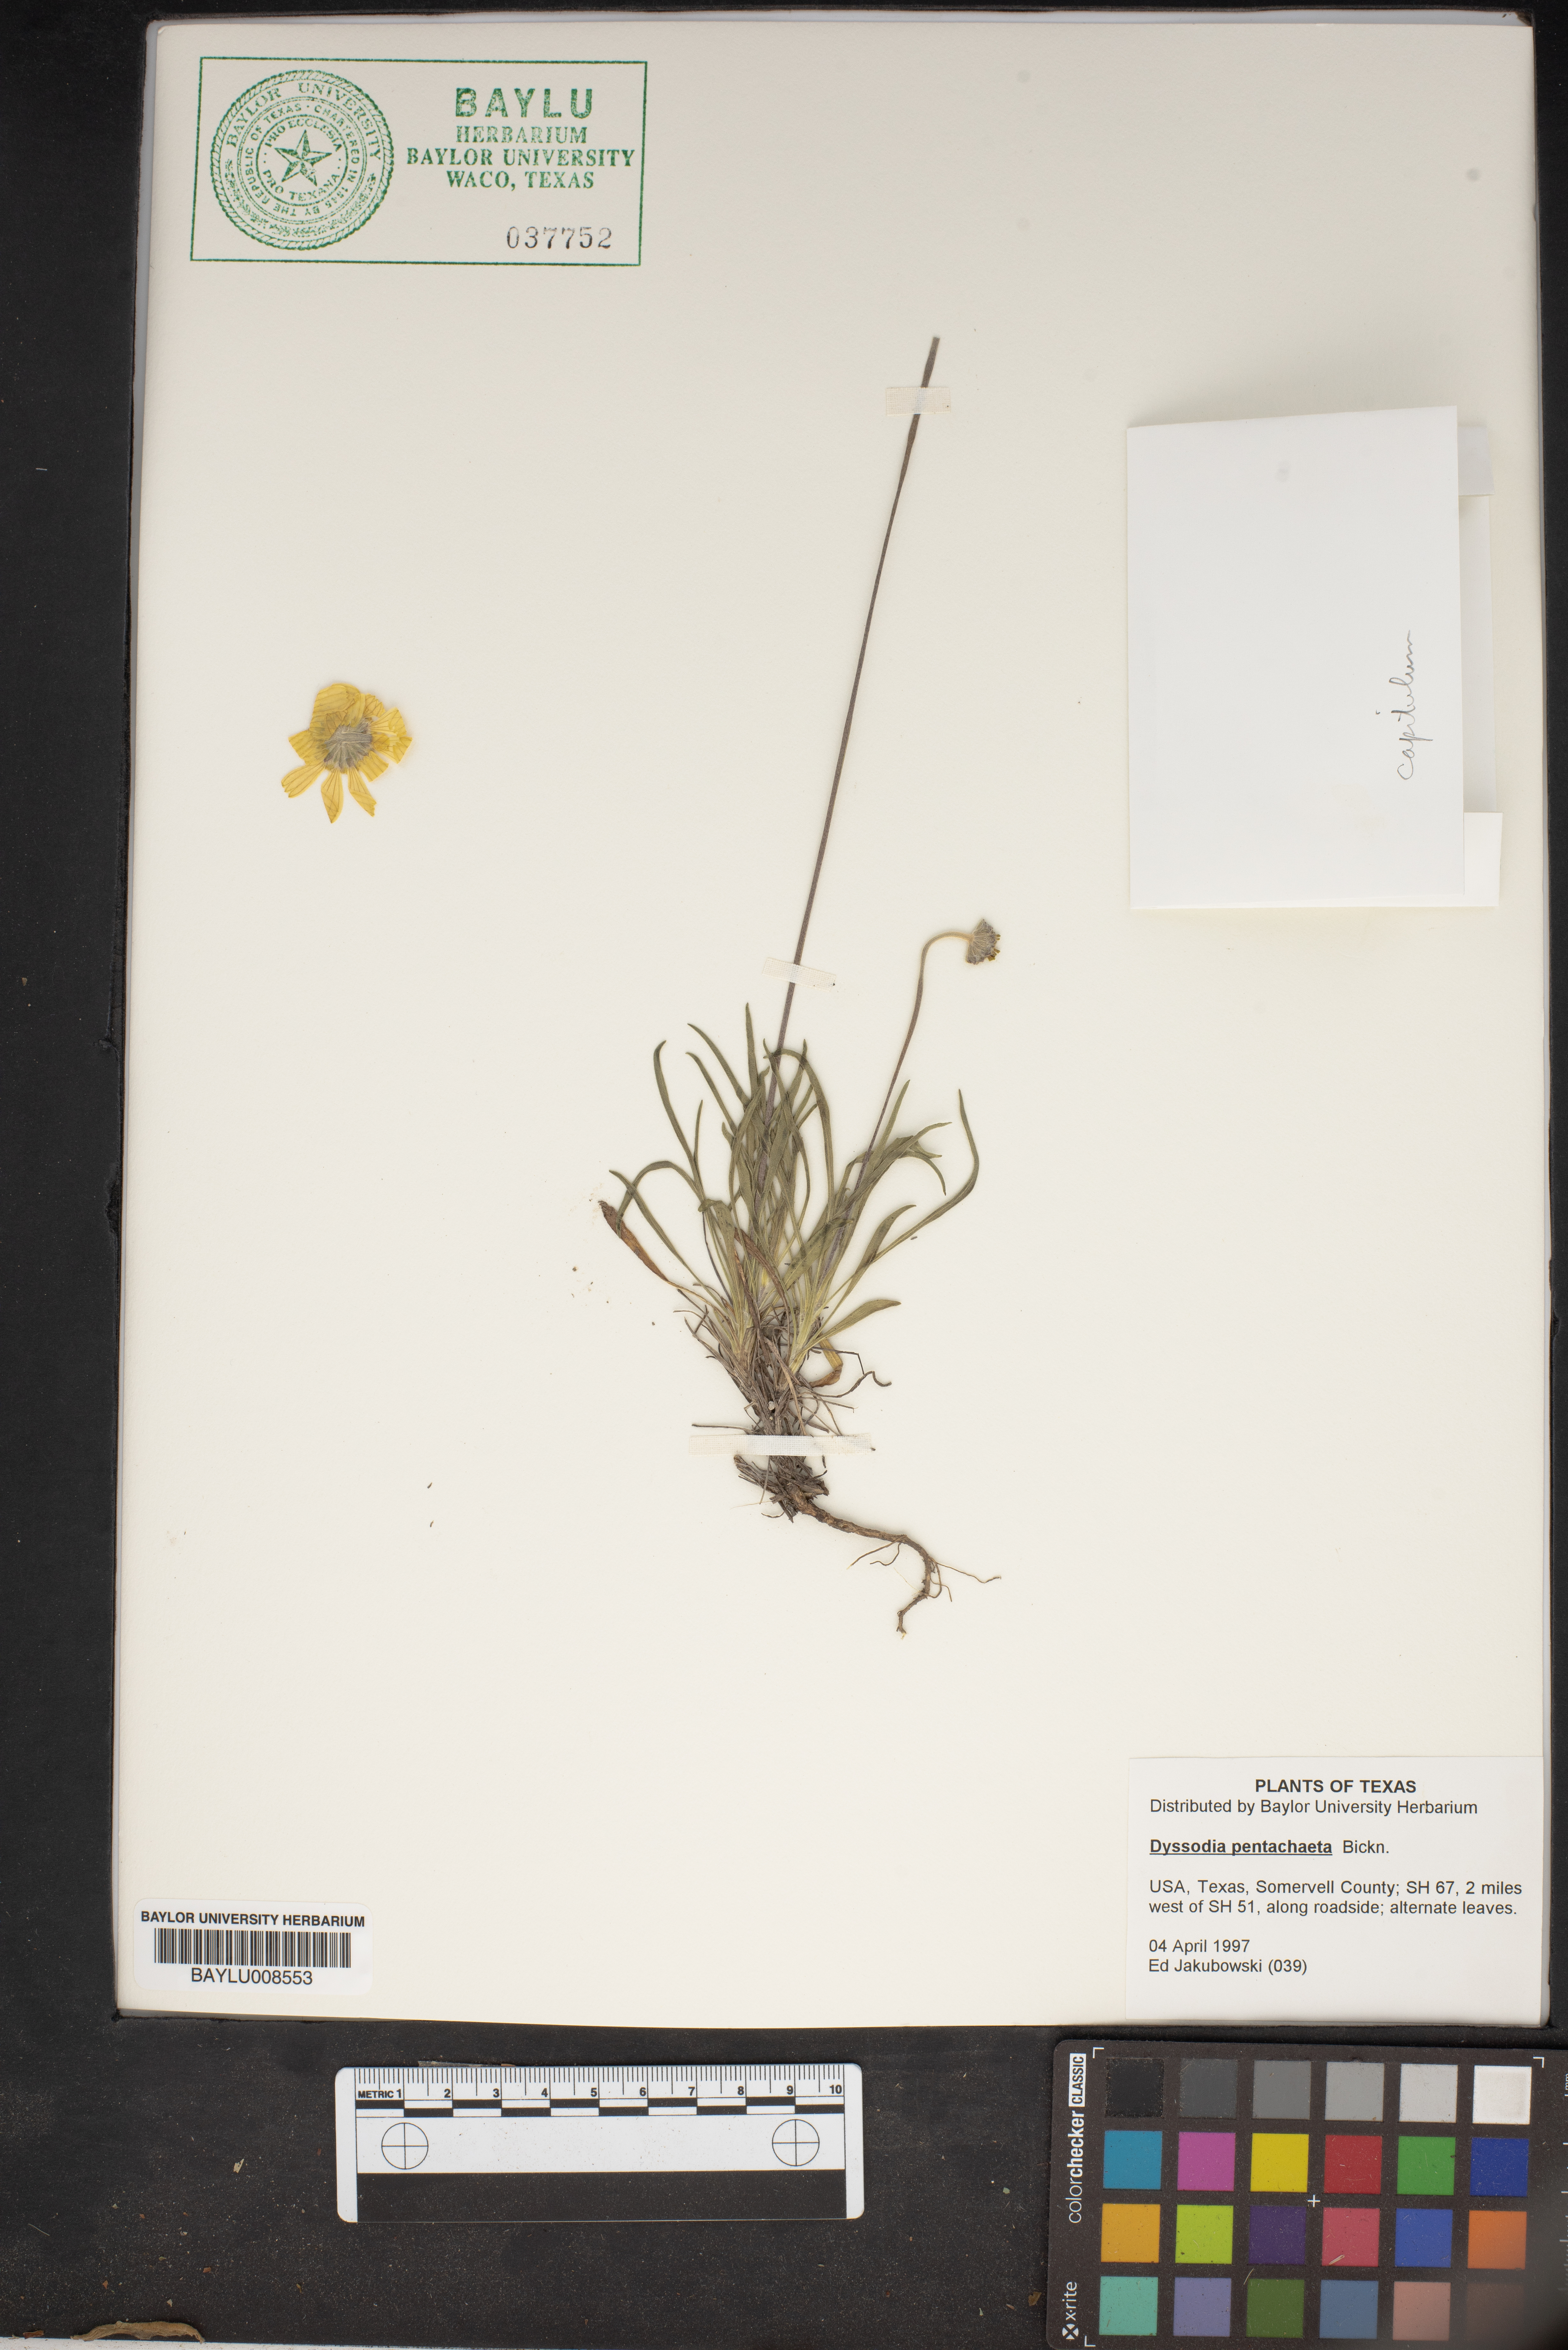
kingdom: Plantae
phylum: Tracheophyta
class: Magnoliopsida
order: Asterales
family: Asteraceae
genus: Thymophylla
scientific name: Thymophylla pentachaeta
